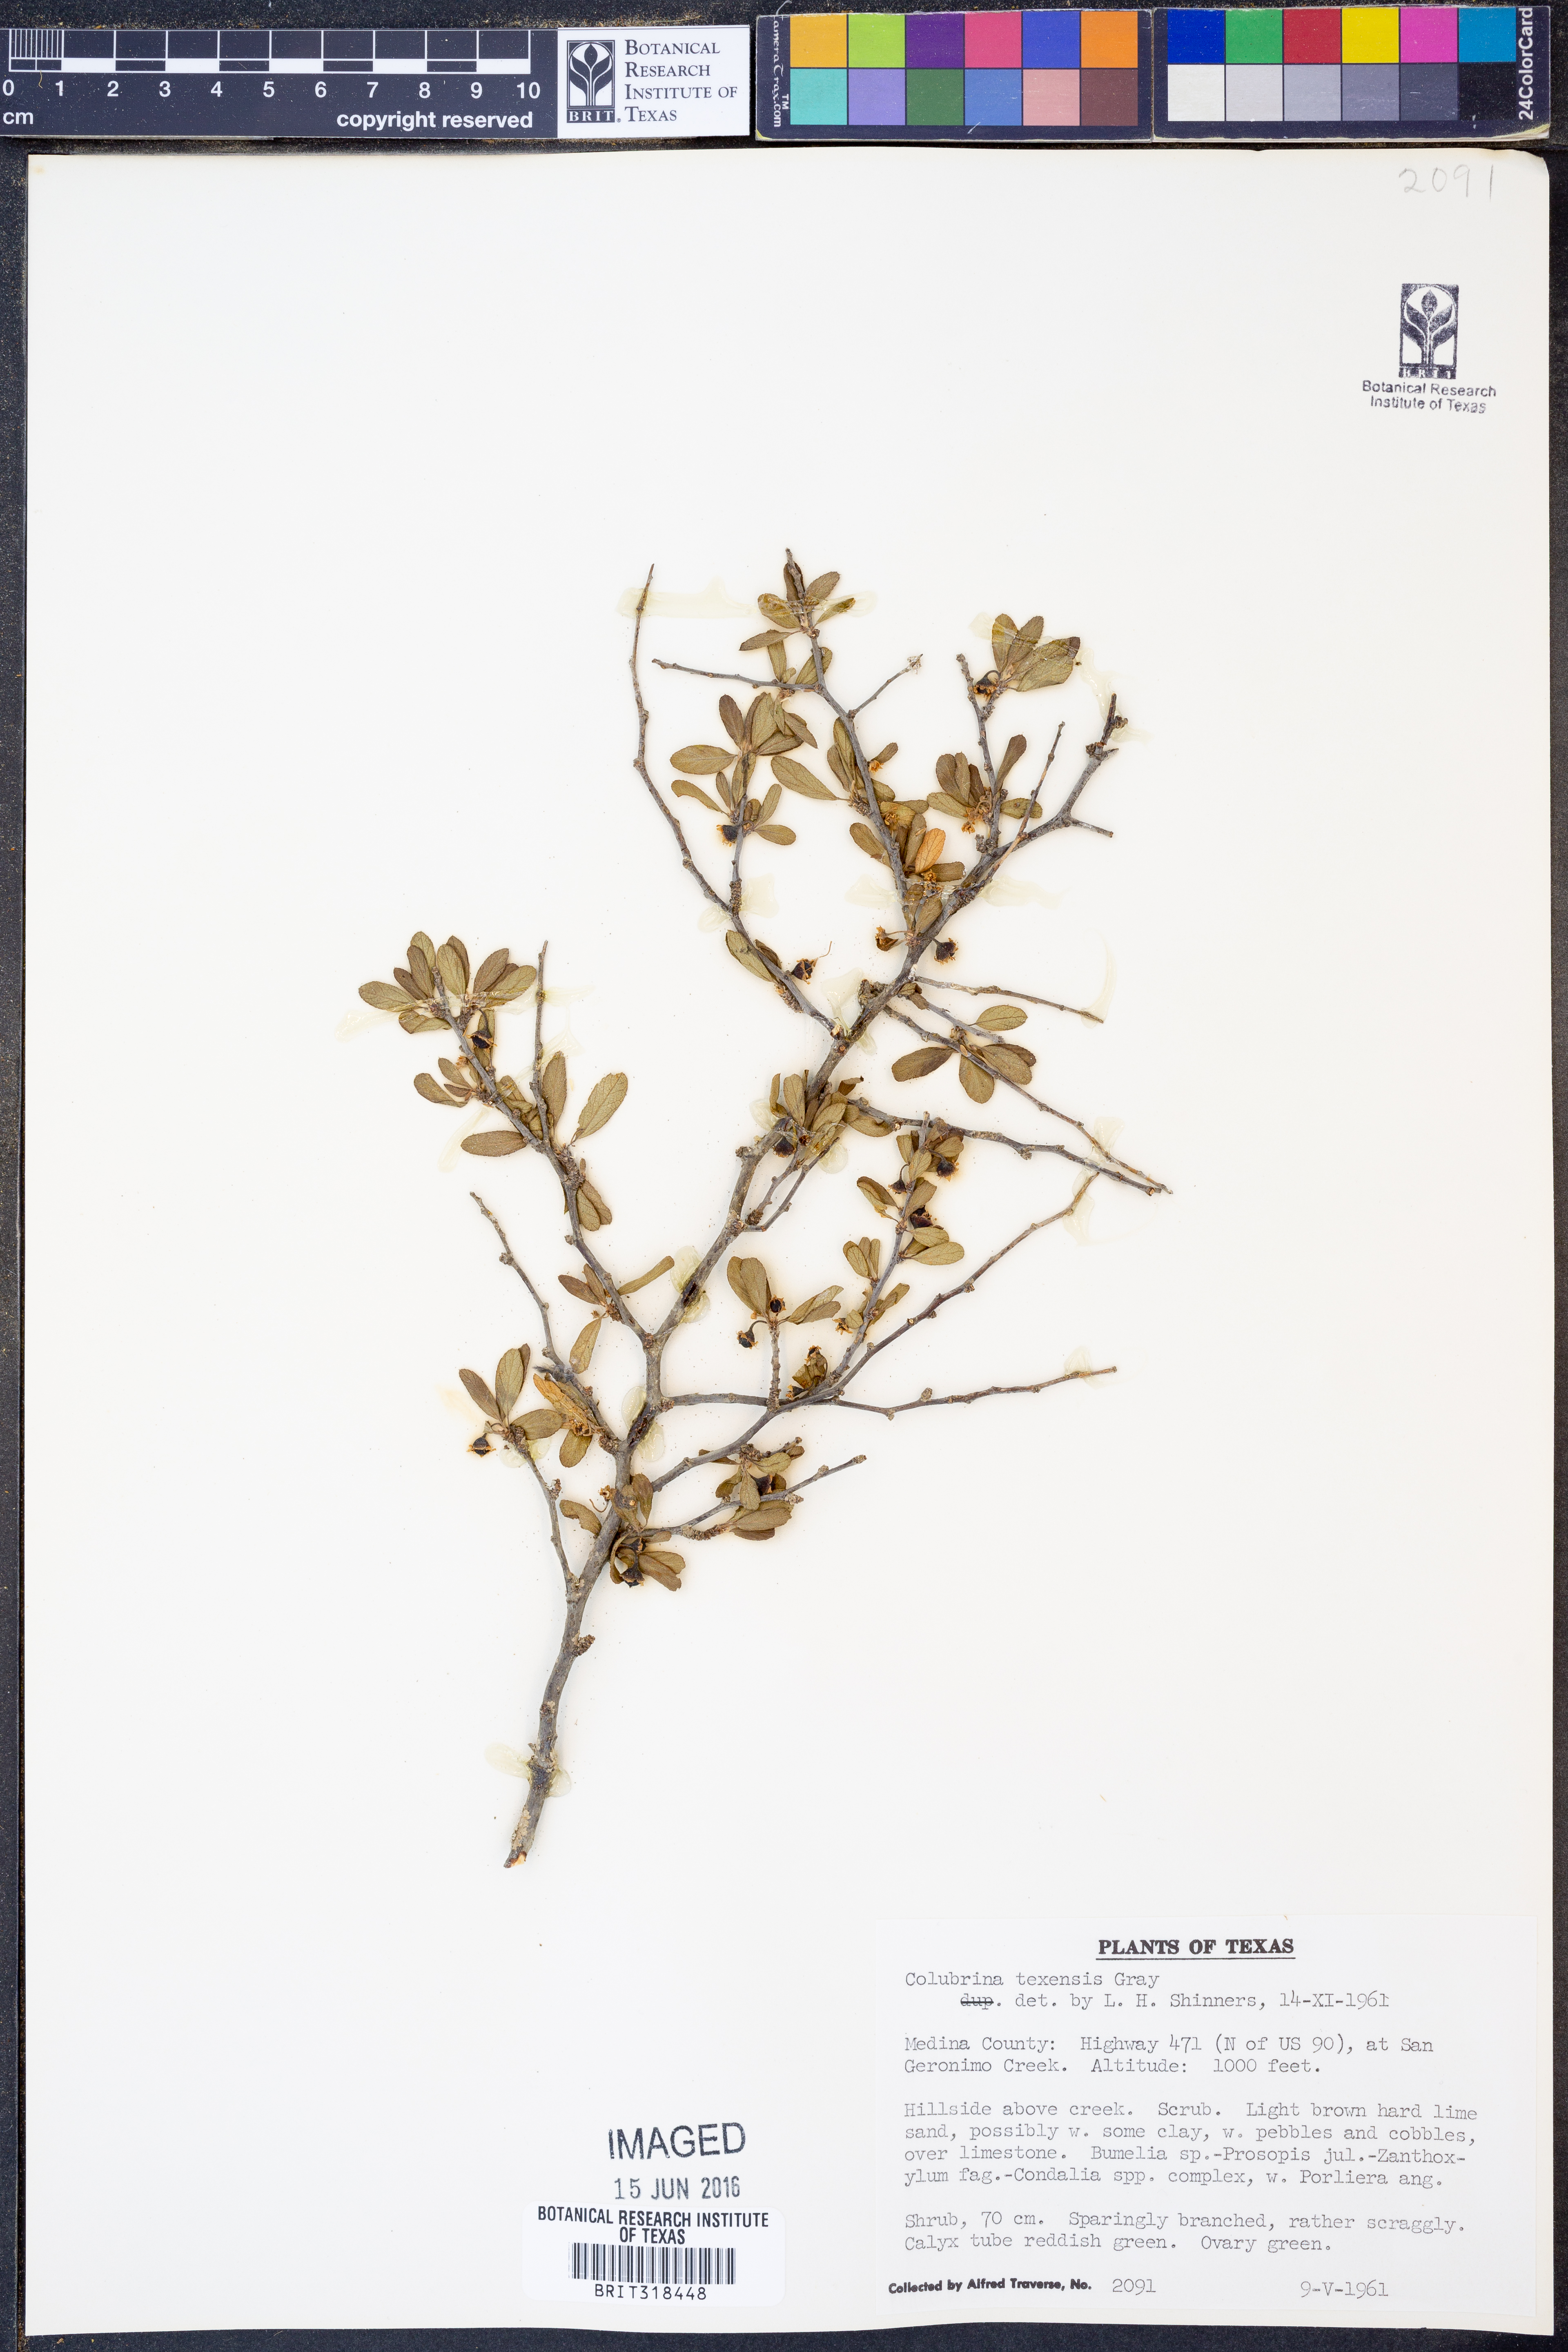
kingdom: Plantae
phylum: Tracheophyta
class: Magnoliopsida
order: Rosales
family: Rhamnaceae
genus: Colubrina
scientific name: Colubrina texensis
